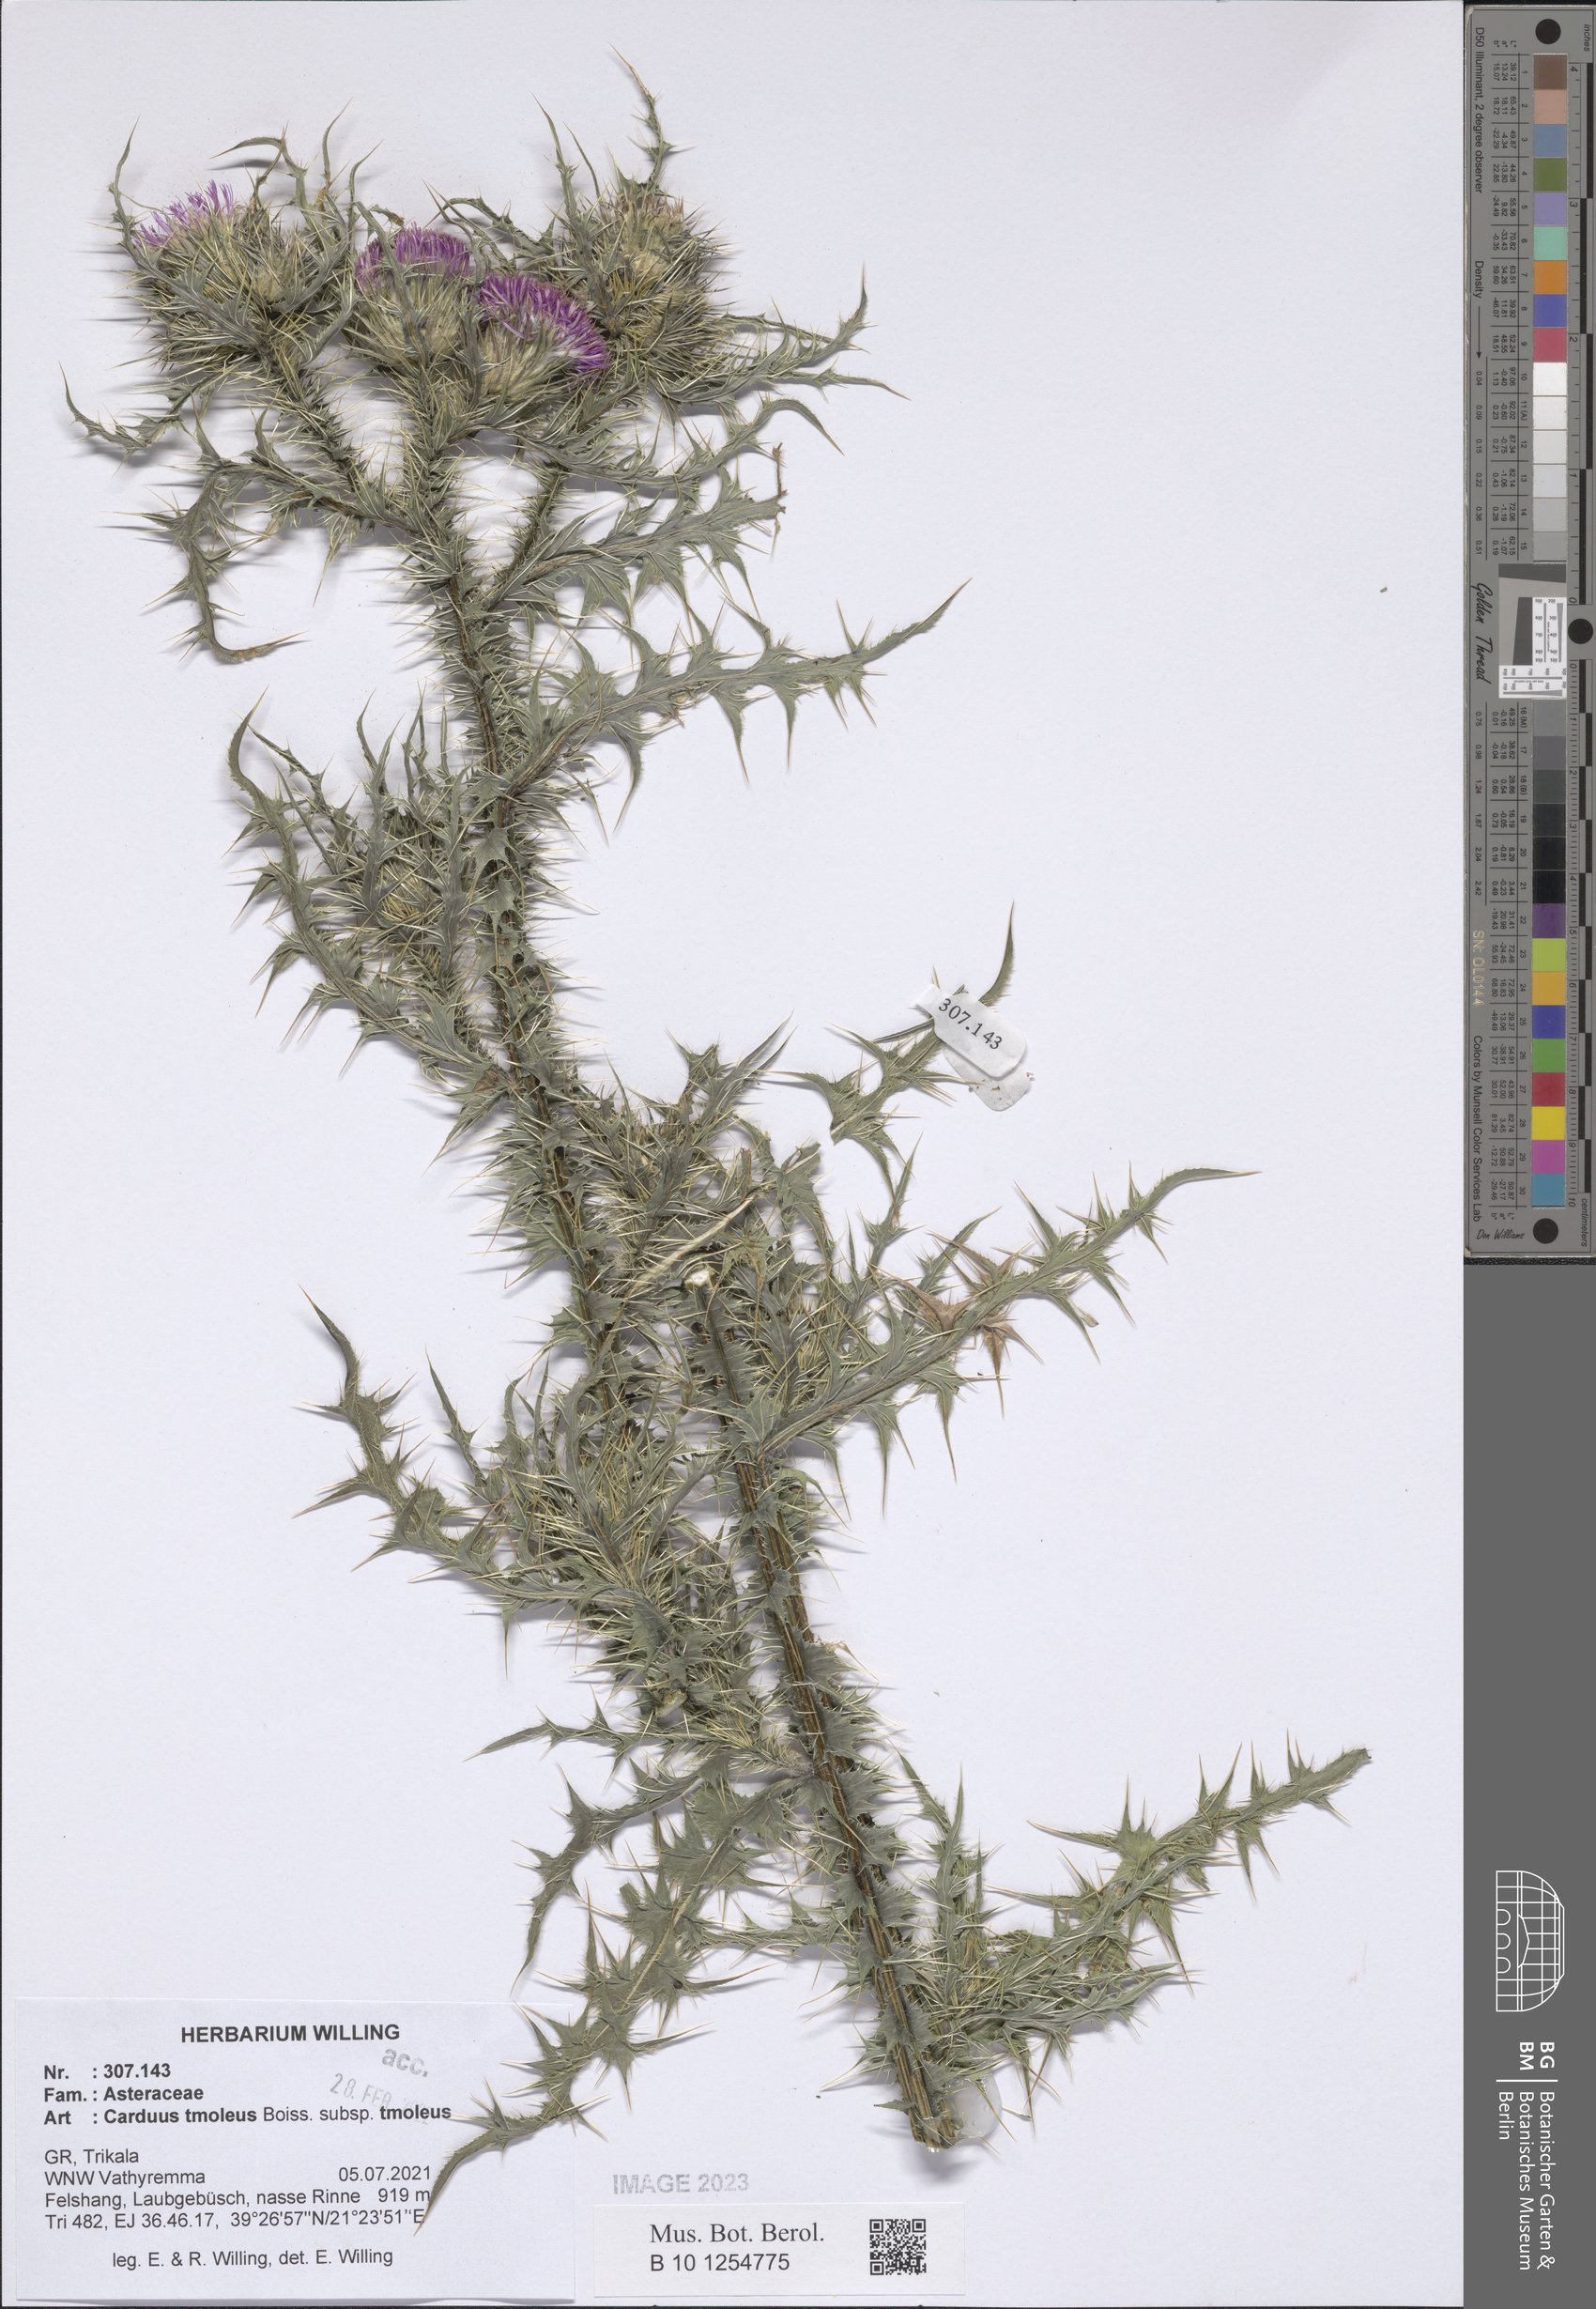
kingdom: Plantae
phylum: Tracheophyta
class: Magnoliopsida
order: Asterales
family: Asteraceae
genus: Carduus
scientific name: Carduus tmoleus
